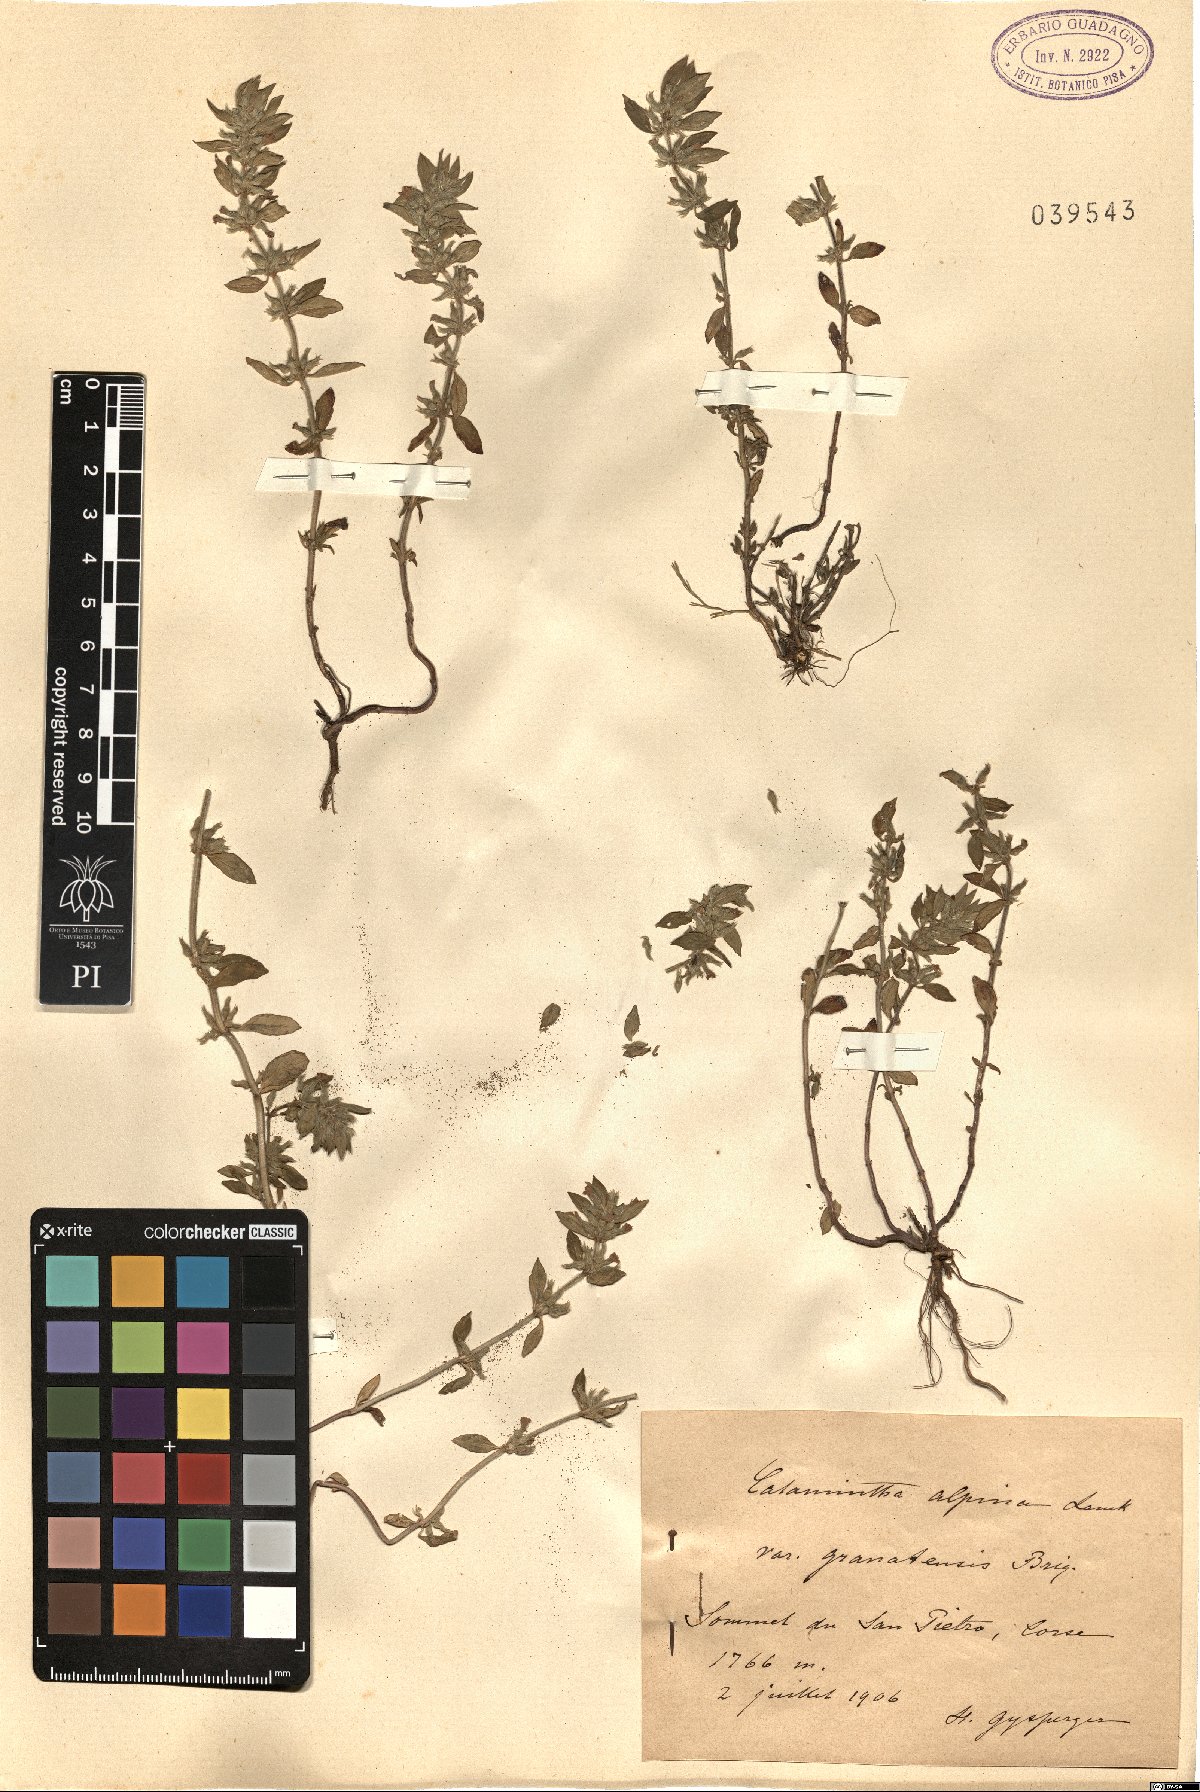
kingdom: Plantae
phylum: Tracheophyta
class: Magnoliopsida
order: Lamiales
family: Lamiaceae
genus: Clinopodium
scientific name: Clinopodium alpinum
